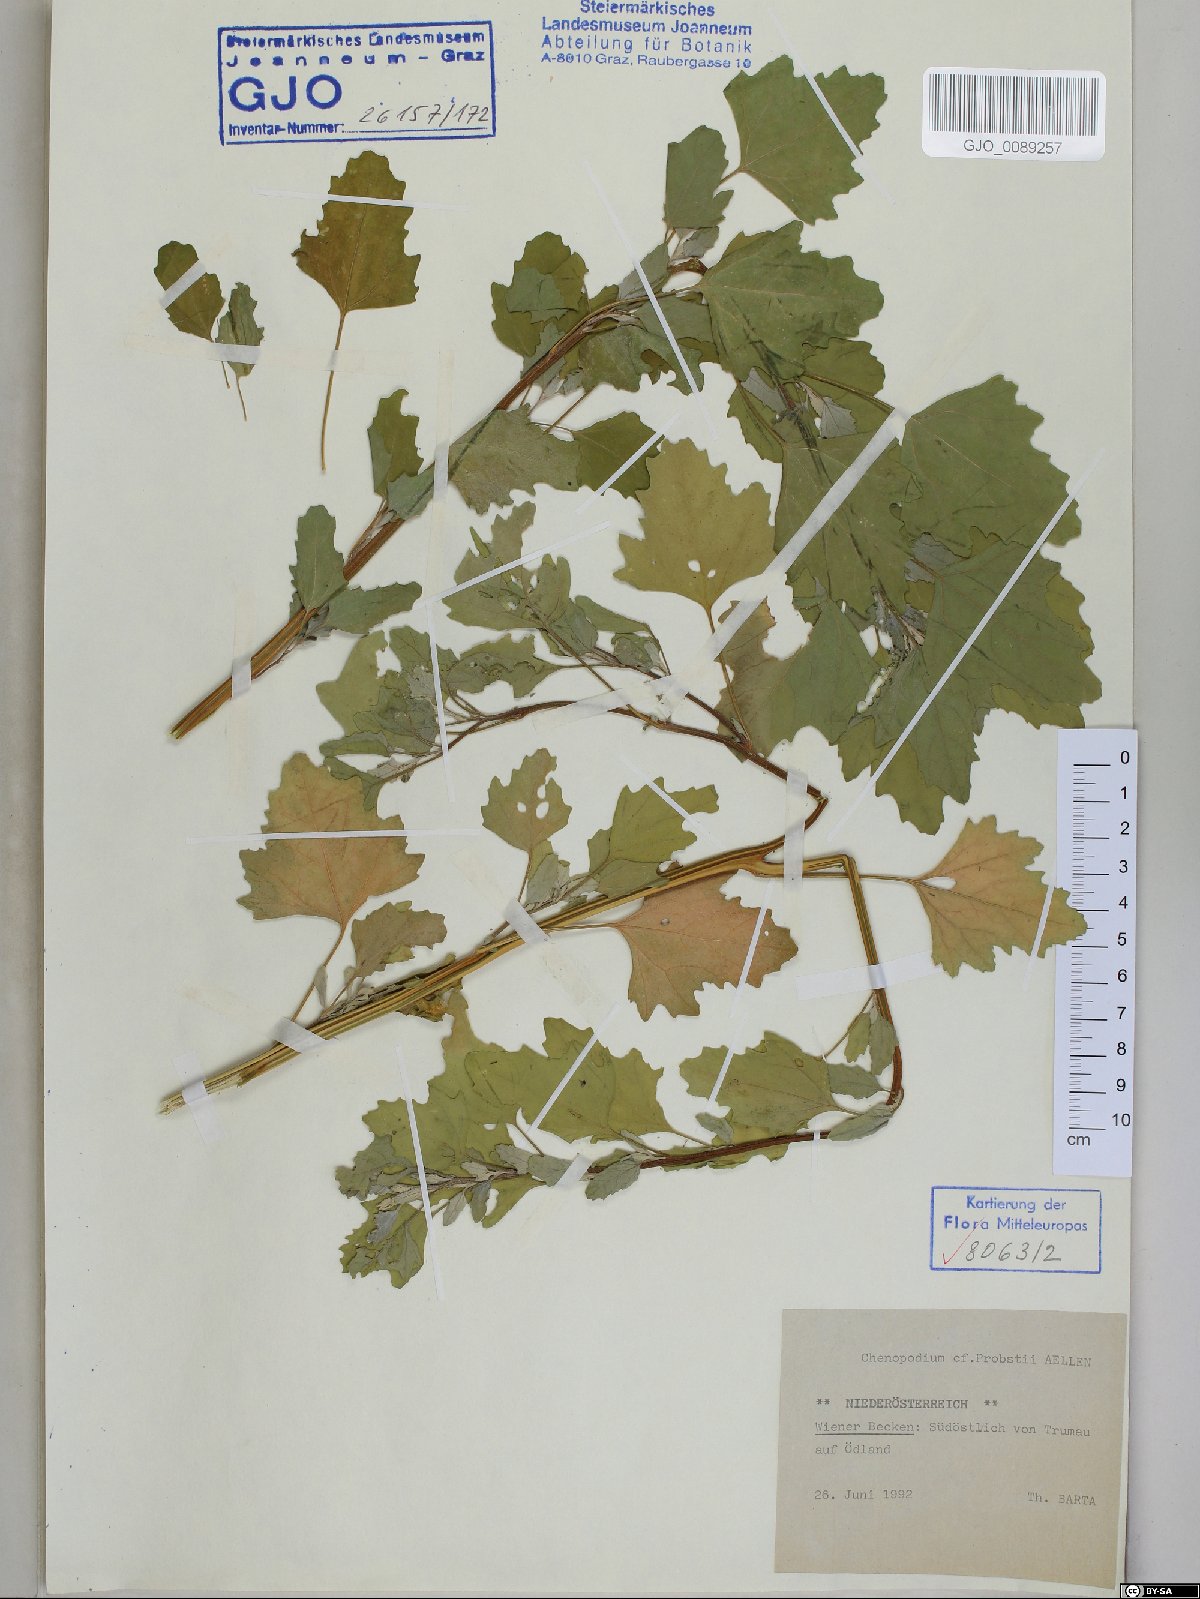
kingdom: Plantae
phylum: Tracheophyta
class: Magnoliopsida
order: Caryophyllales
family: Amaranthaceae
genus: Chenopodium
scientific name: Chenopodium probstii
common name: Probst's goosefoot
